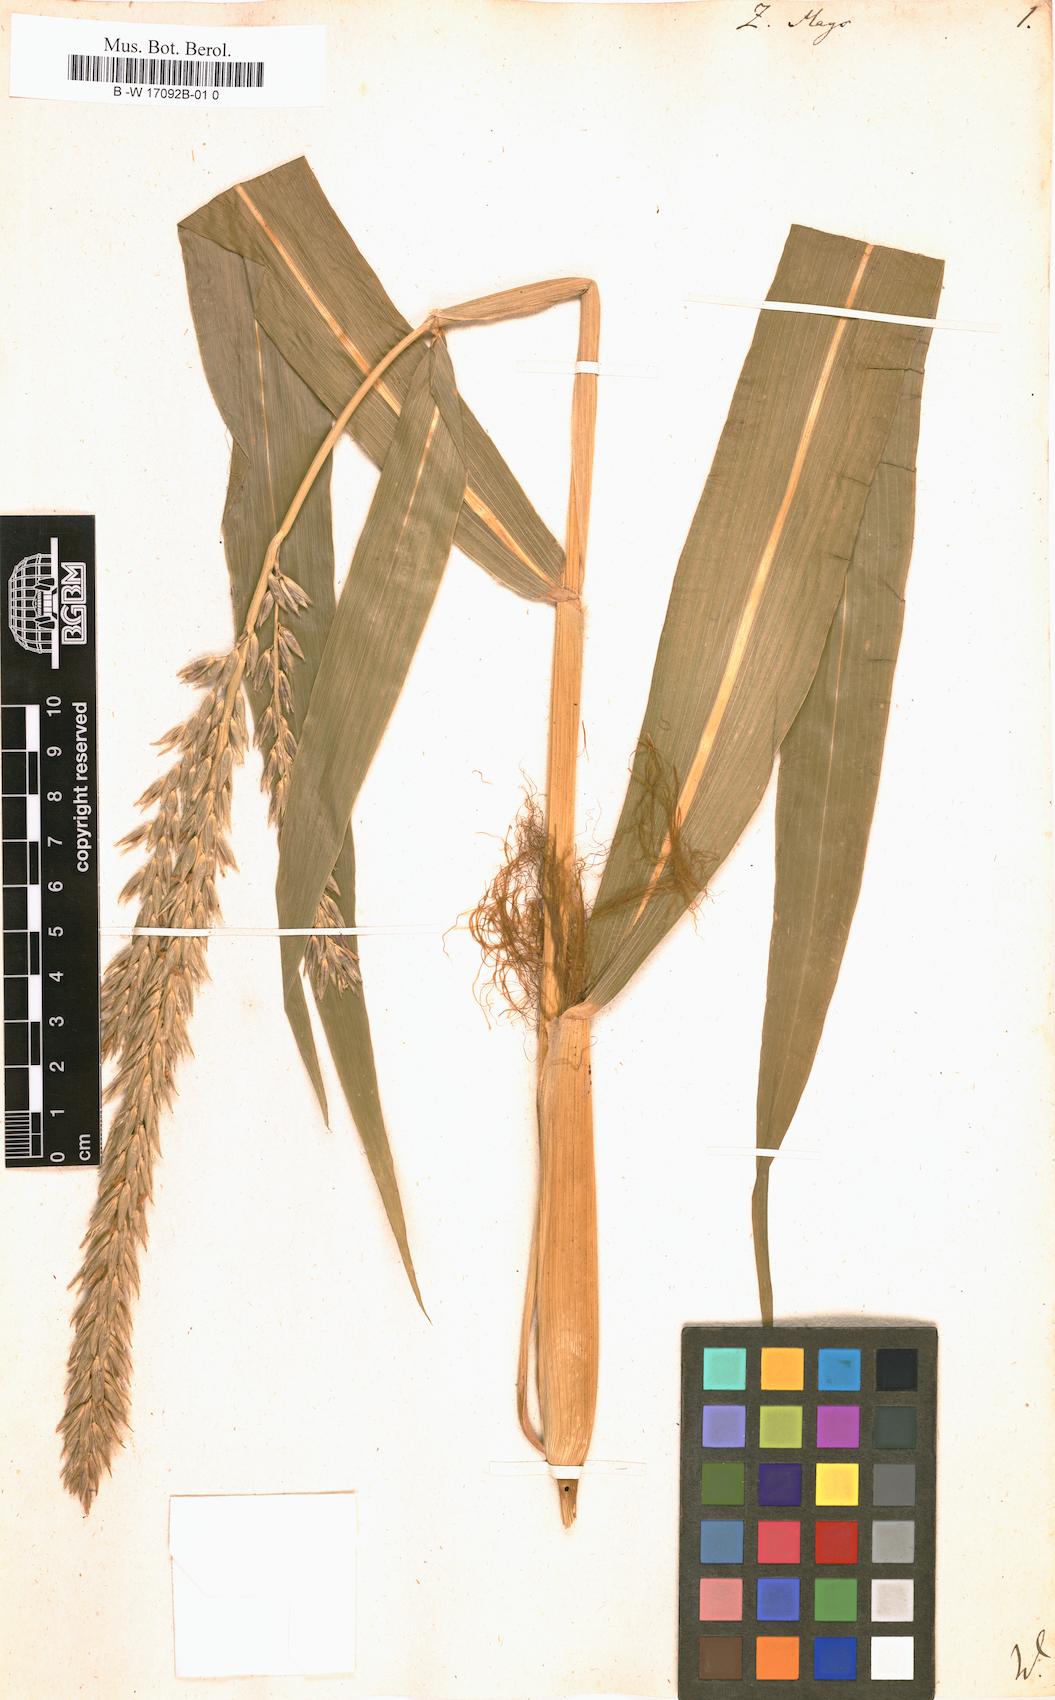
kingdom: Plantae
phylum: Tracheophyta
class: Liliopsida
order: Poales
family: Poaceae
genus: Zea
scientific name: Zea mays
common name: Maize
